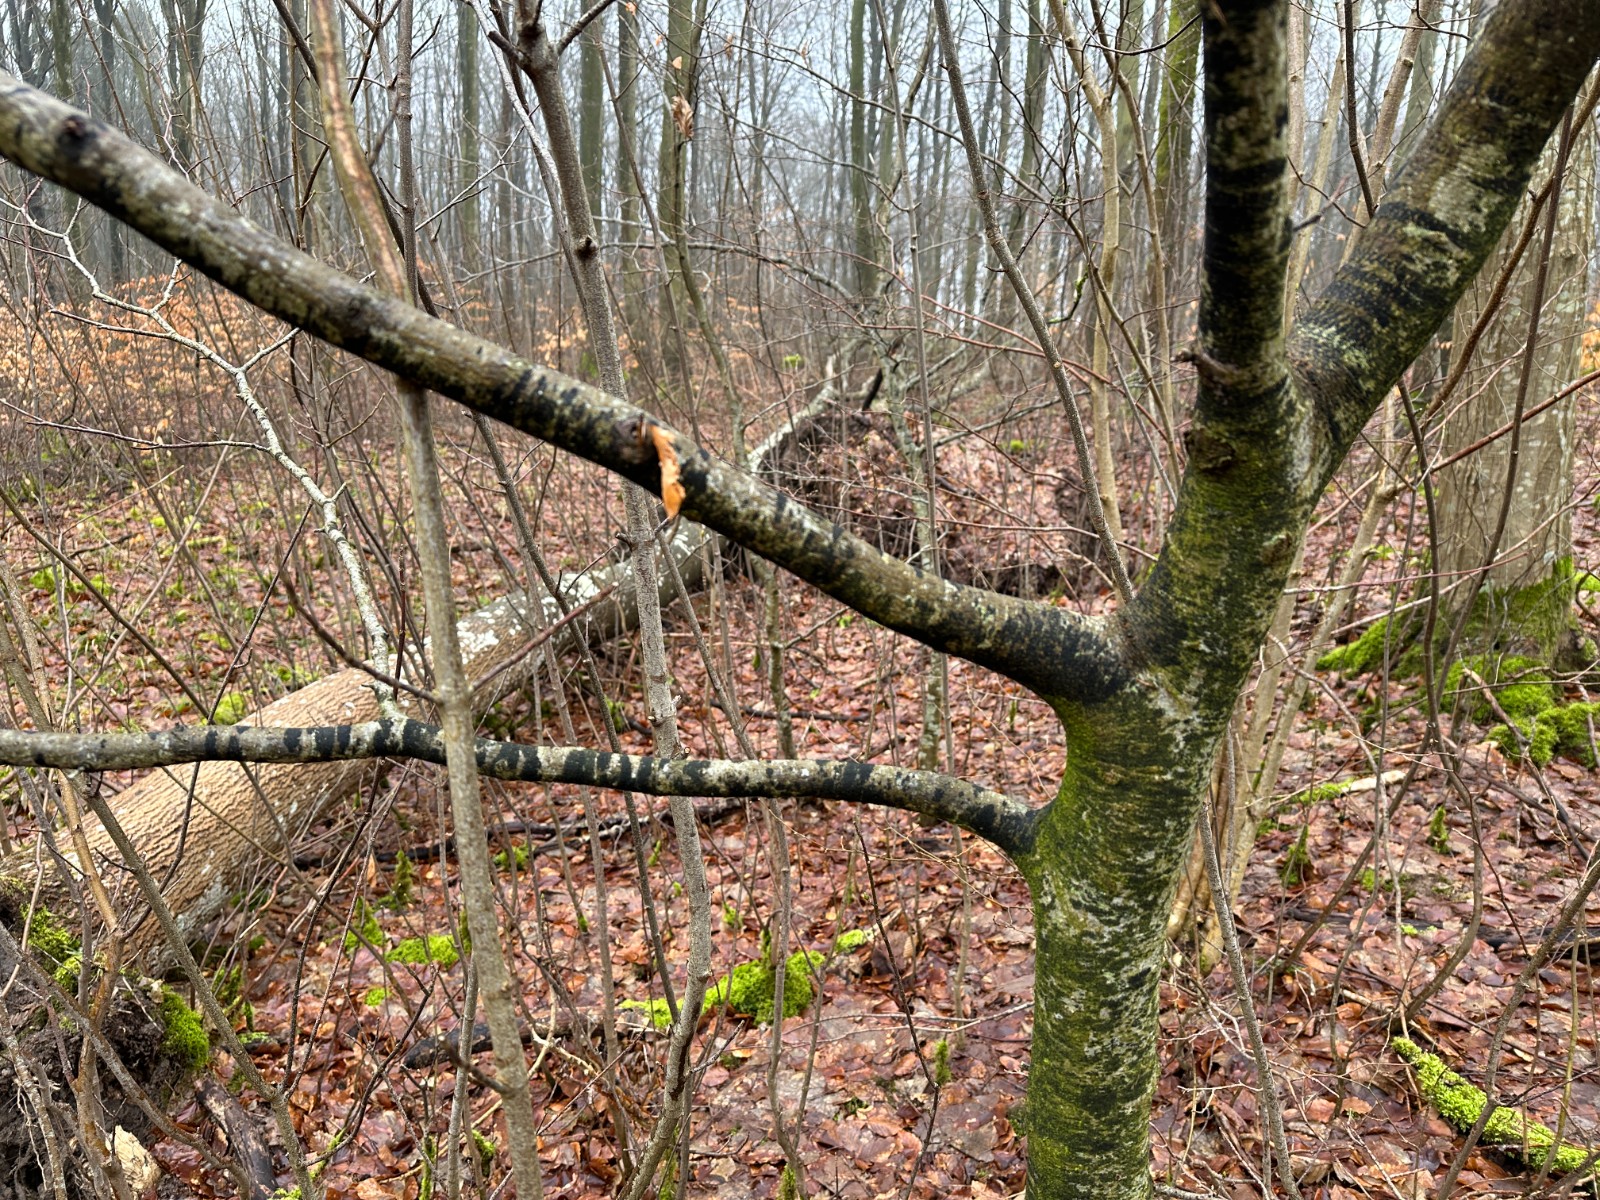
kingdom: Fungi
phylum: Ascomycota
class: Leotiomycetes
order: Rhytismatales
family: Ascodichaenaceae
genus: Ascodichaena
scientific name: Ascodichaena rugosa
